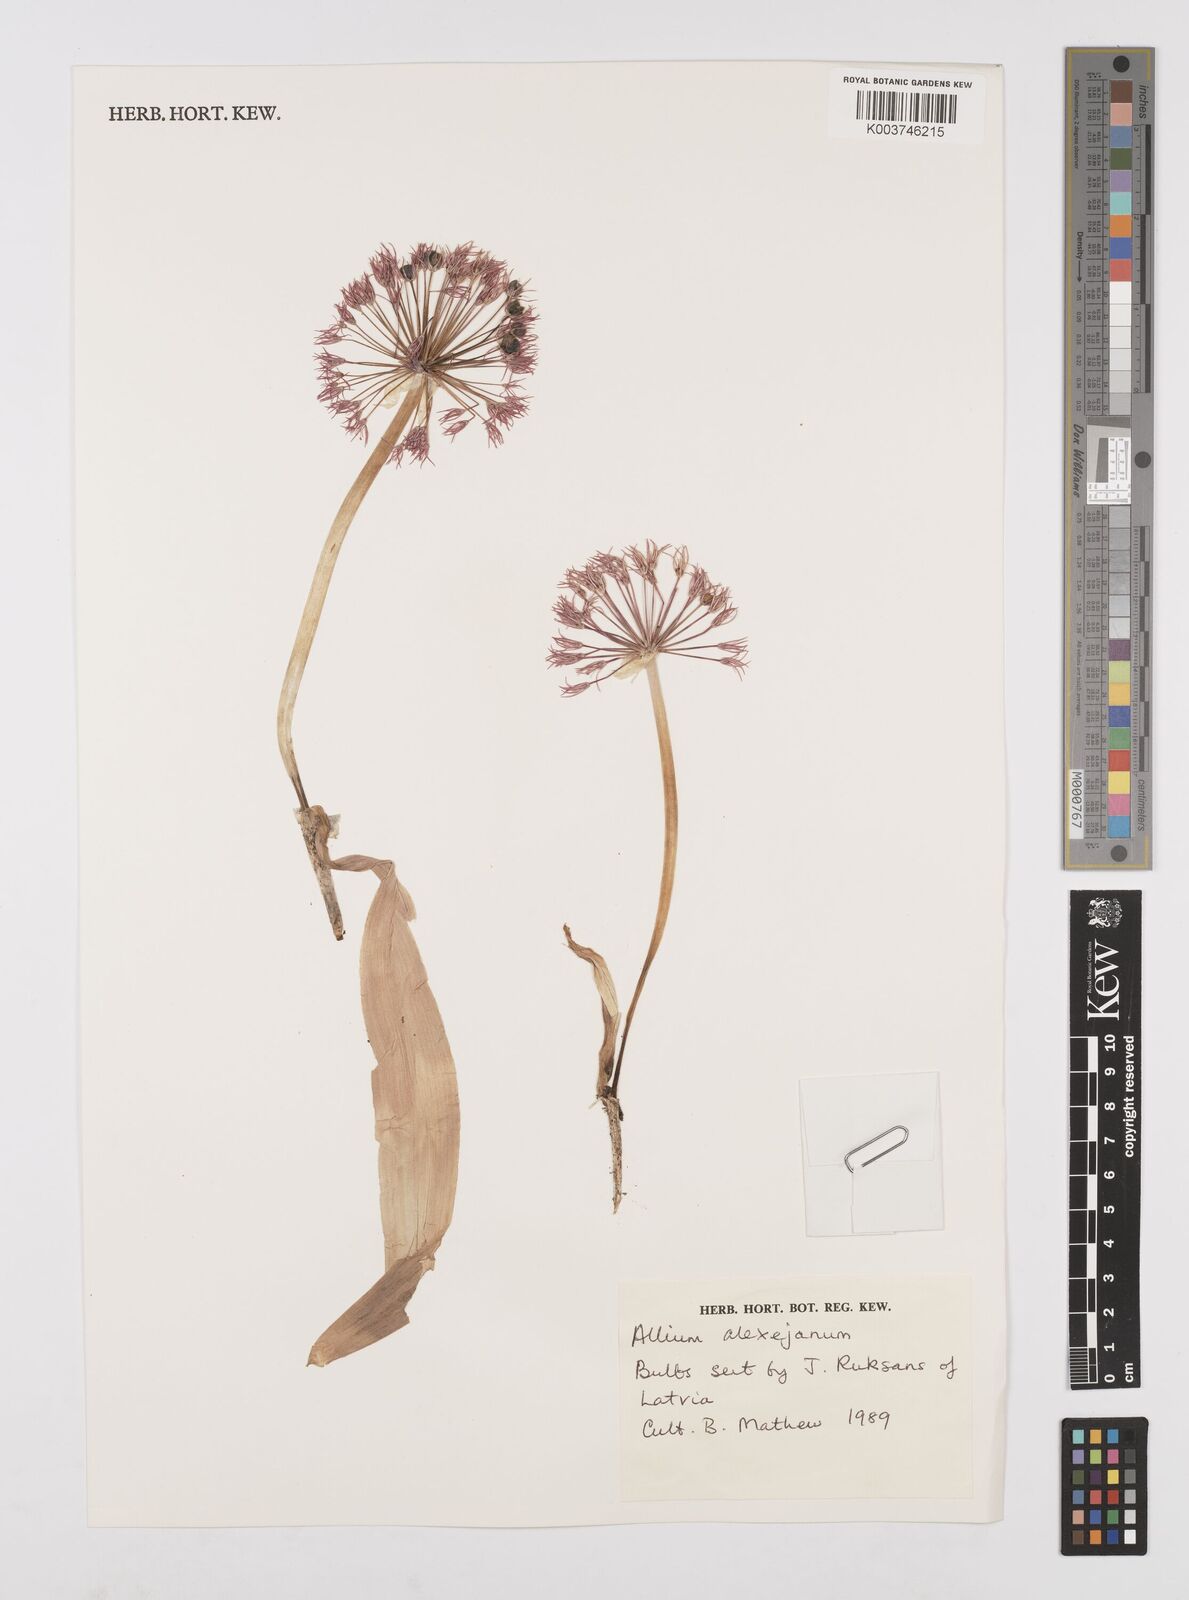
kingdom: Plantae
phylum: Tracheophyta
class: Liliopsida
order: Asparagales
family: Amaryllidaceae
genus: Allium
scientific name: Allium alexeianum
